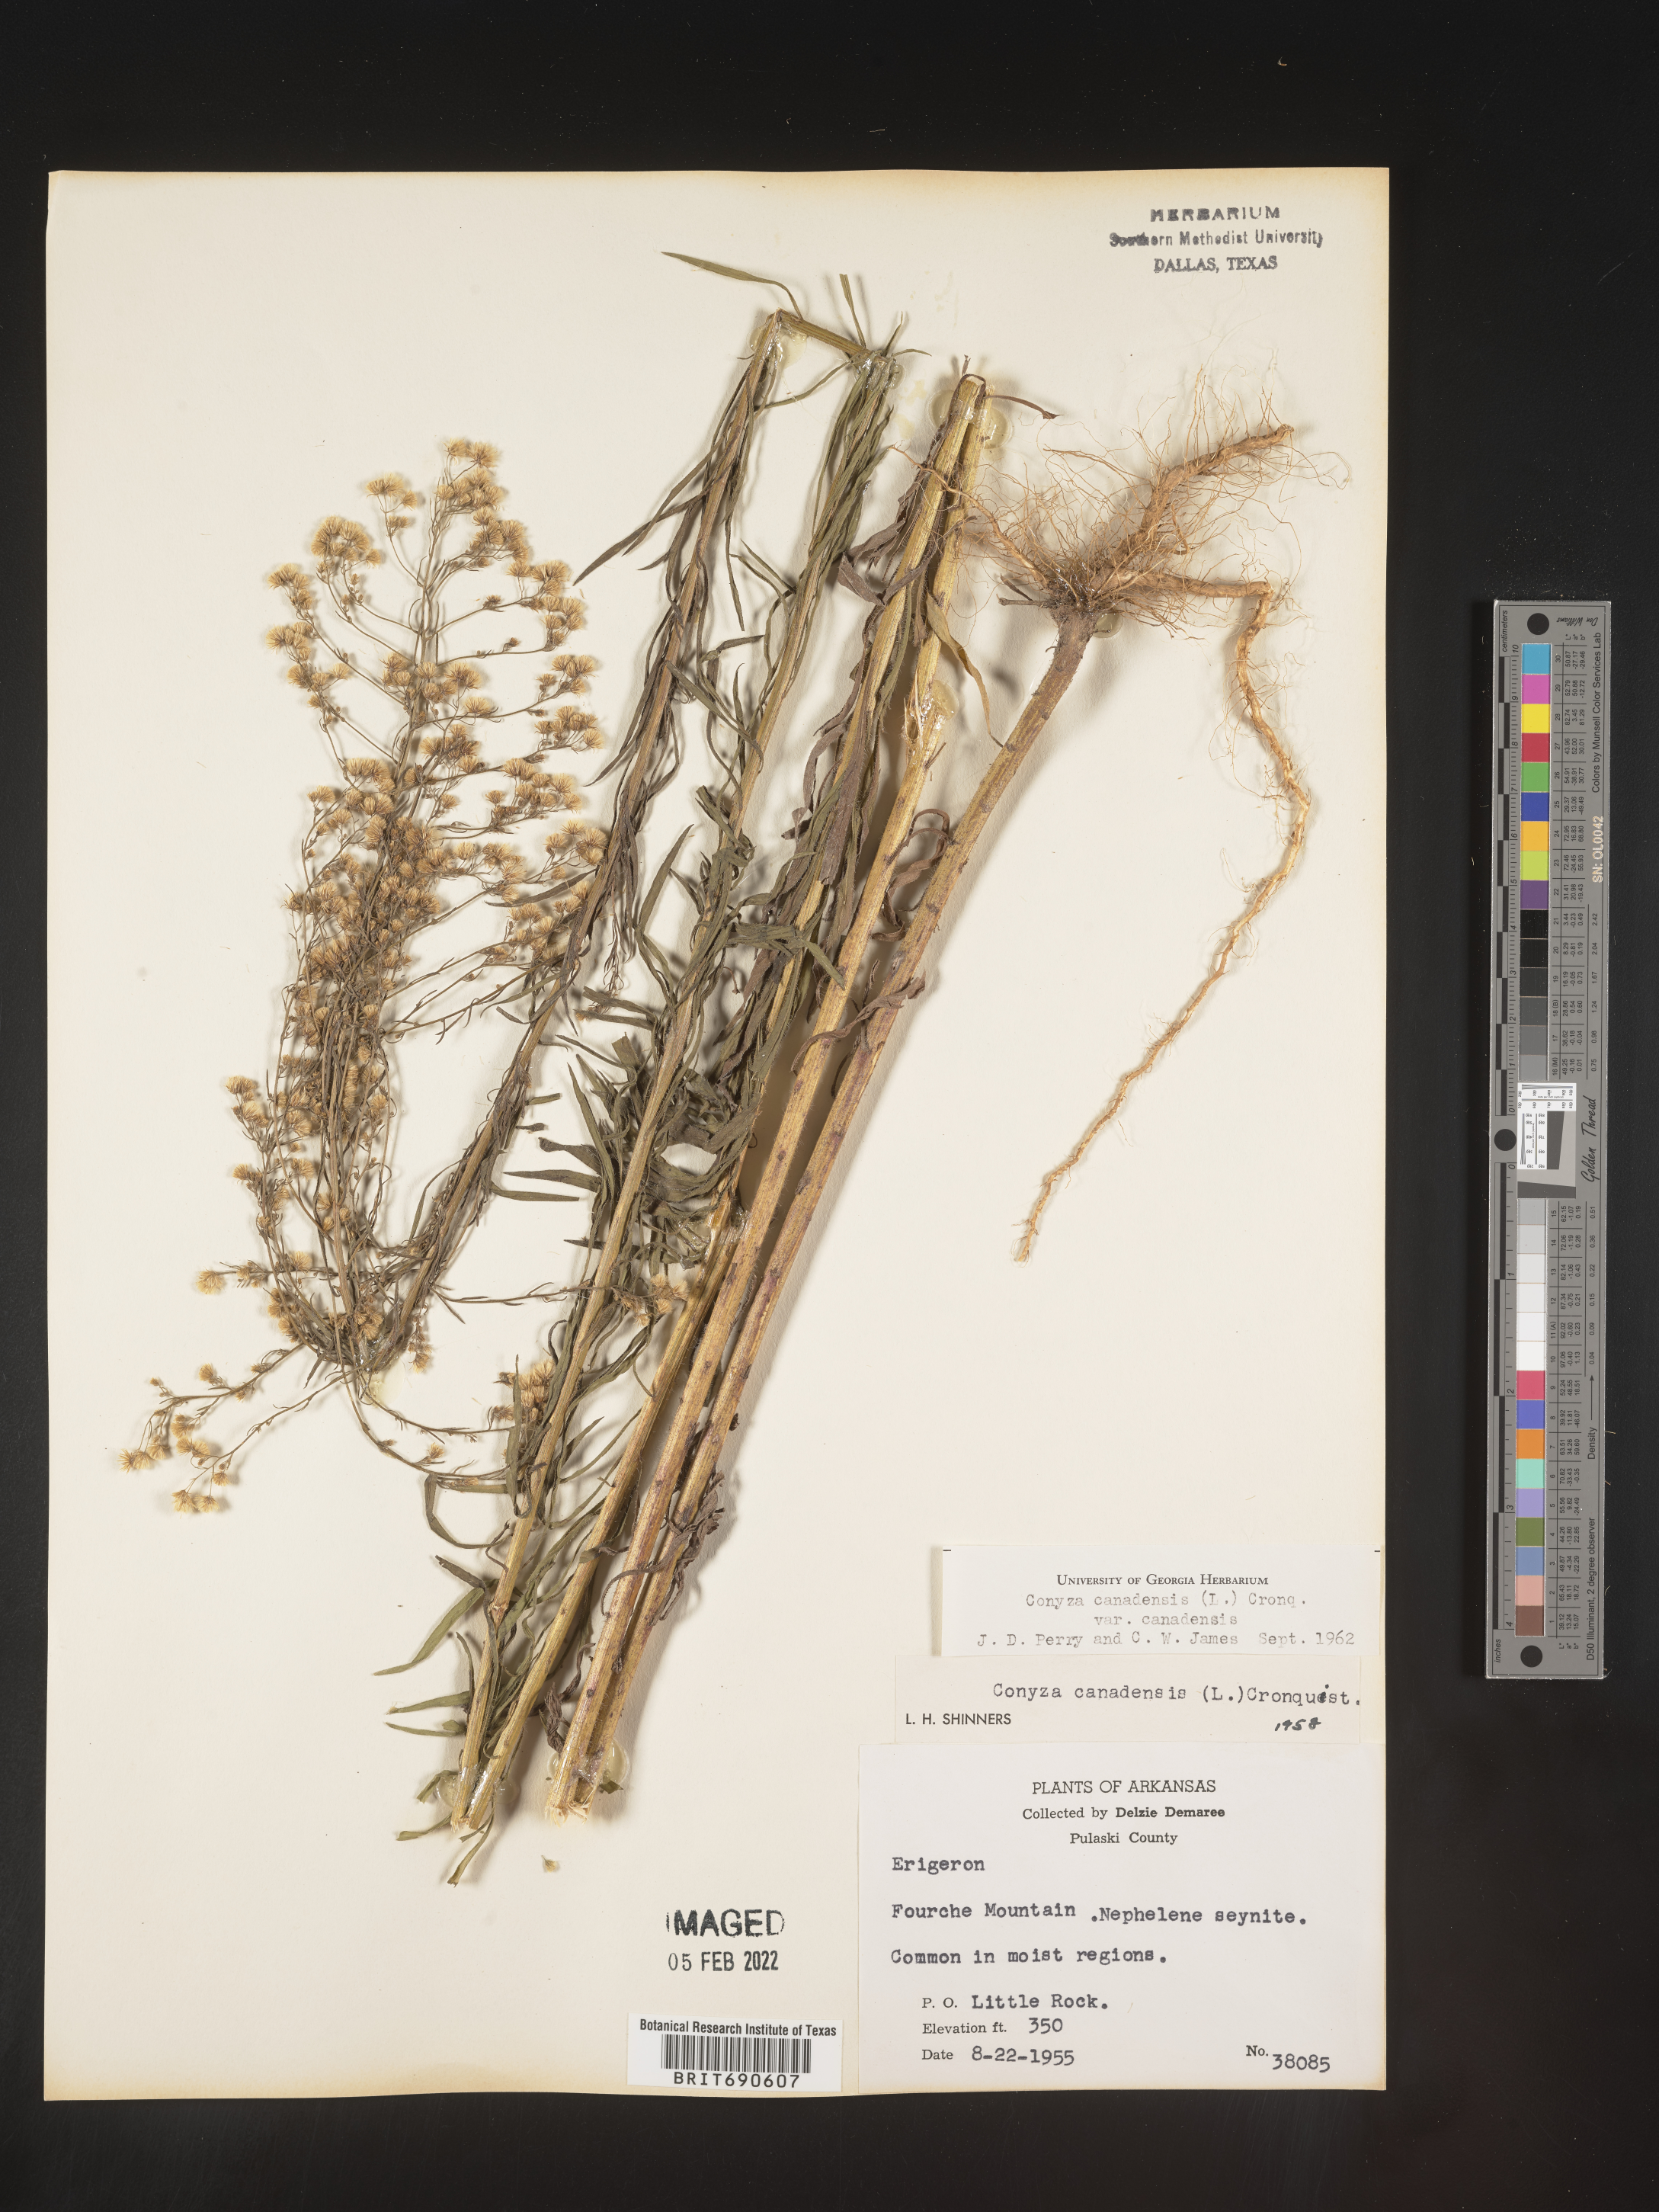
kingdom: Plantae
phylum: Tracheophyta
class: Magnoliopsida
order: Asterales
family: Asteraceae
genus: Erigeron
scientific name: Erigeron canadensis
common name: Canadian fleabane
